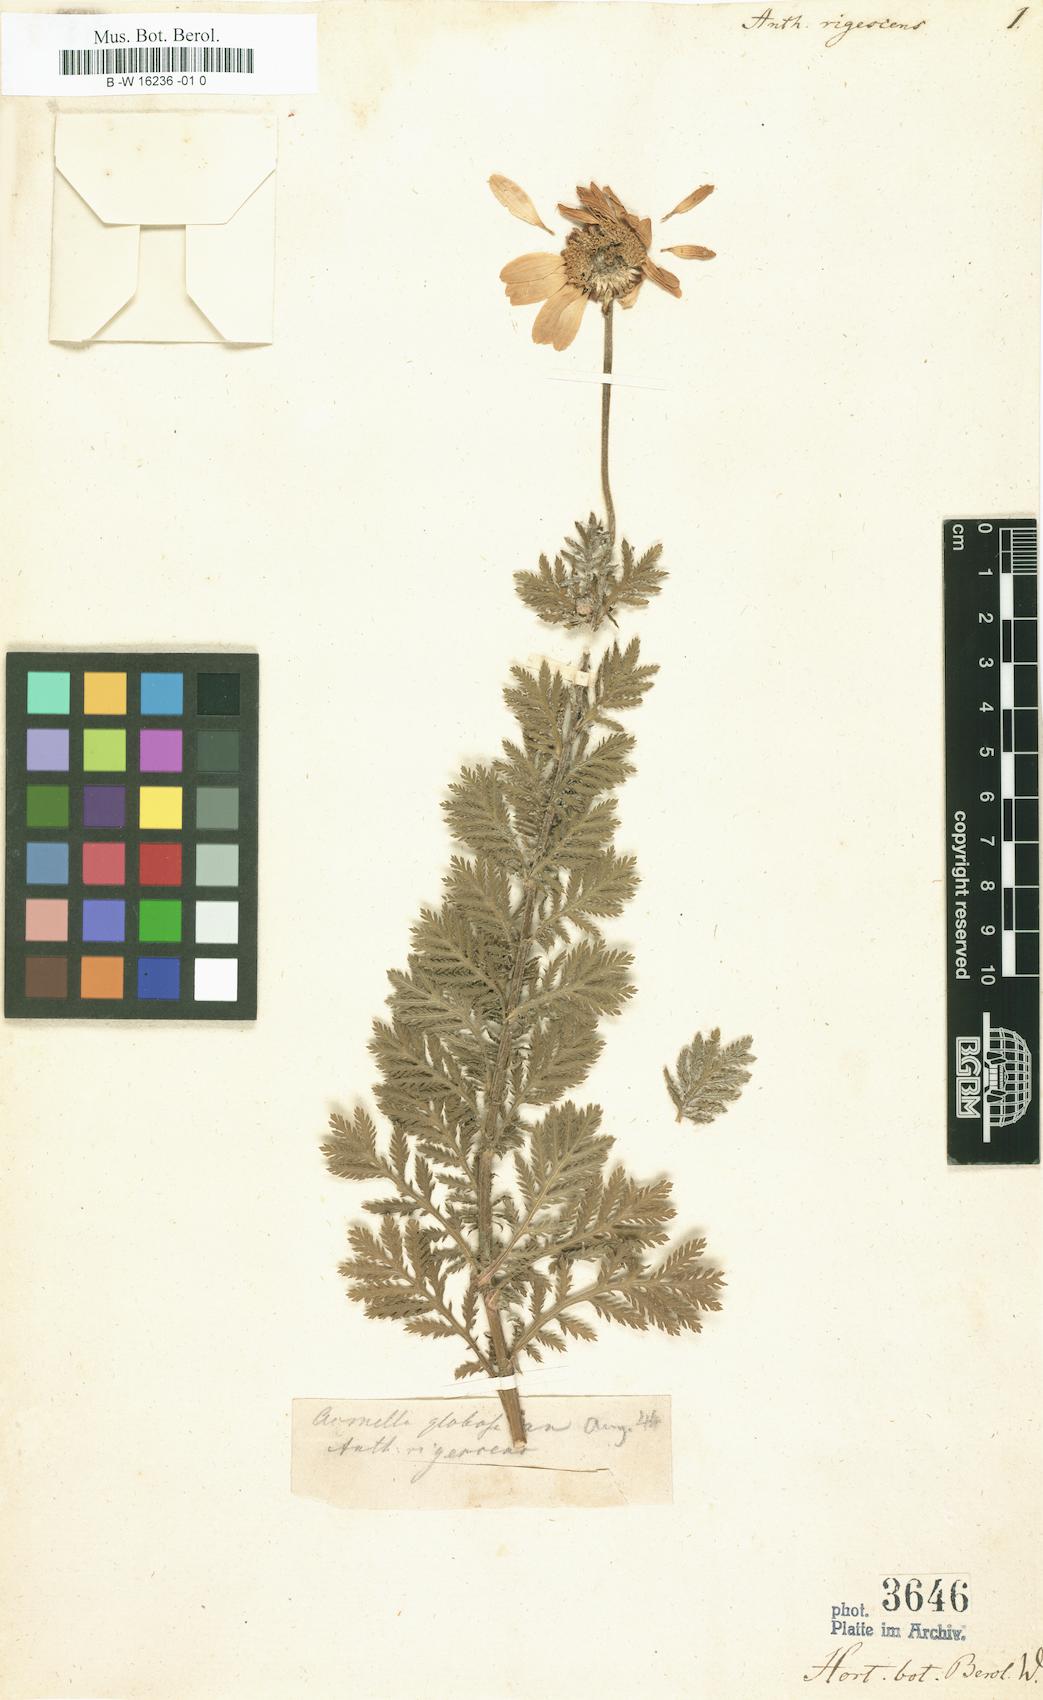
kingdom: Plantae
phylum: Tracheophyta
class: Magnoliopsida
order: Asterales
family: Asteraceae
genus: Cota
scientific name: Cota triumfetti
